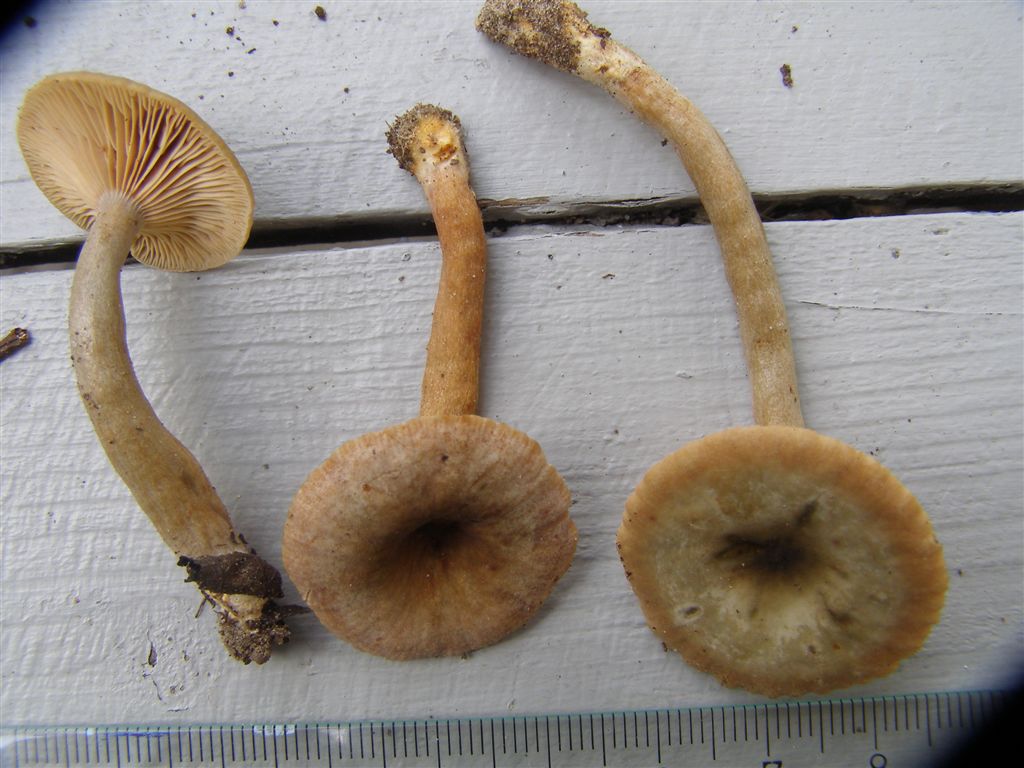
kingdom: Fungi
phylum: Basidiomycota
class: Agaricomycetes
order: Russulales
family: Russulaceae
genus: Lactarius
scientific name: Lactarius obscuratus
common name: elle-mælkehat
